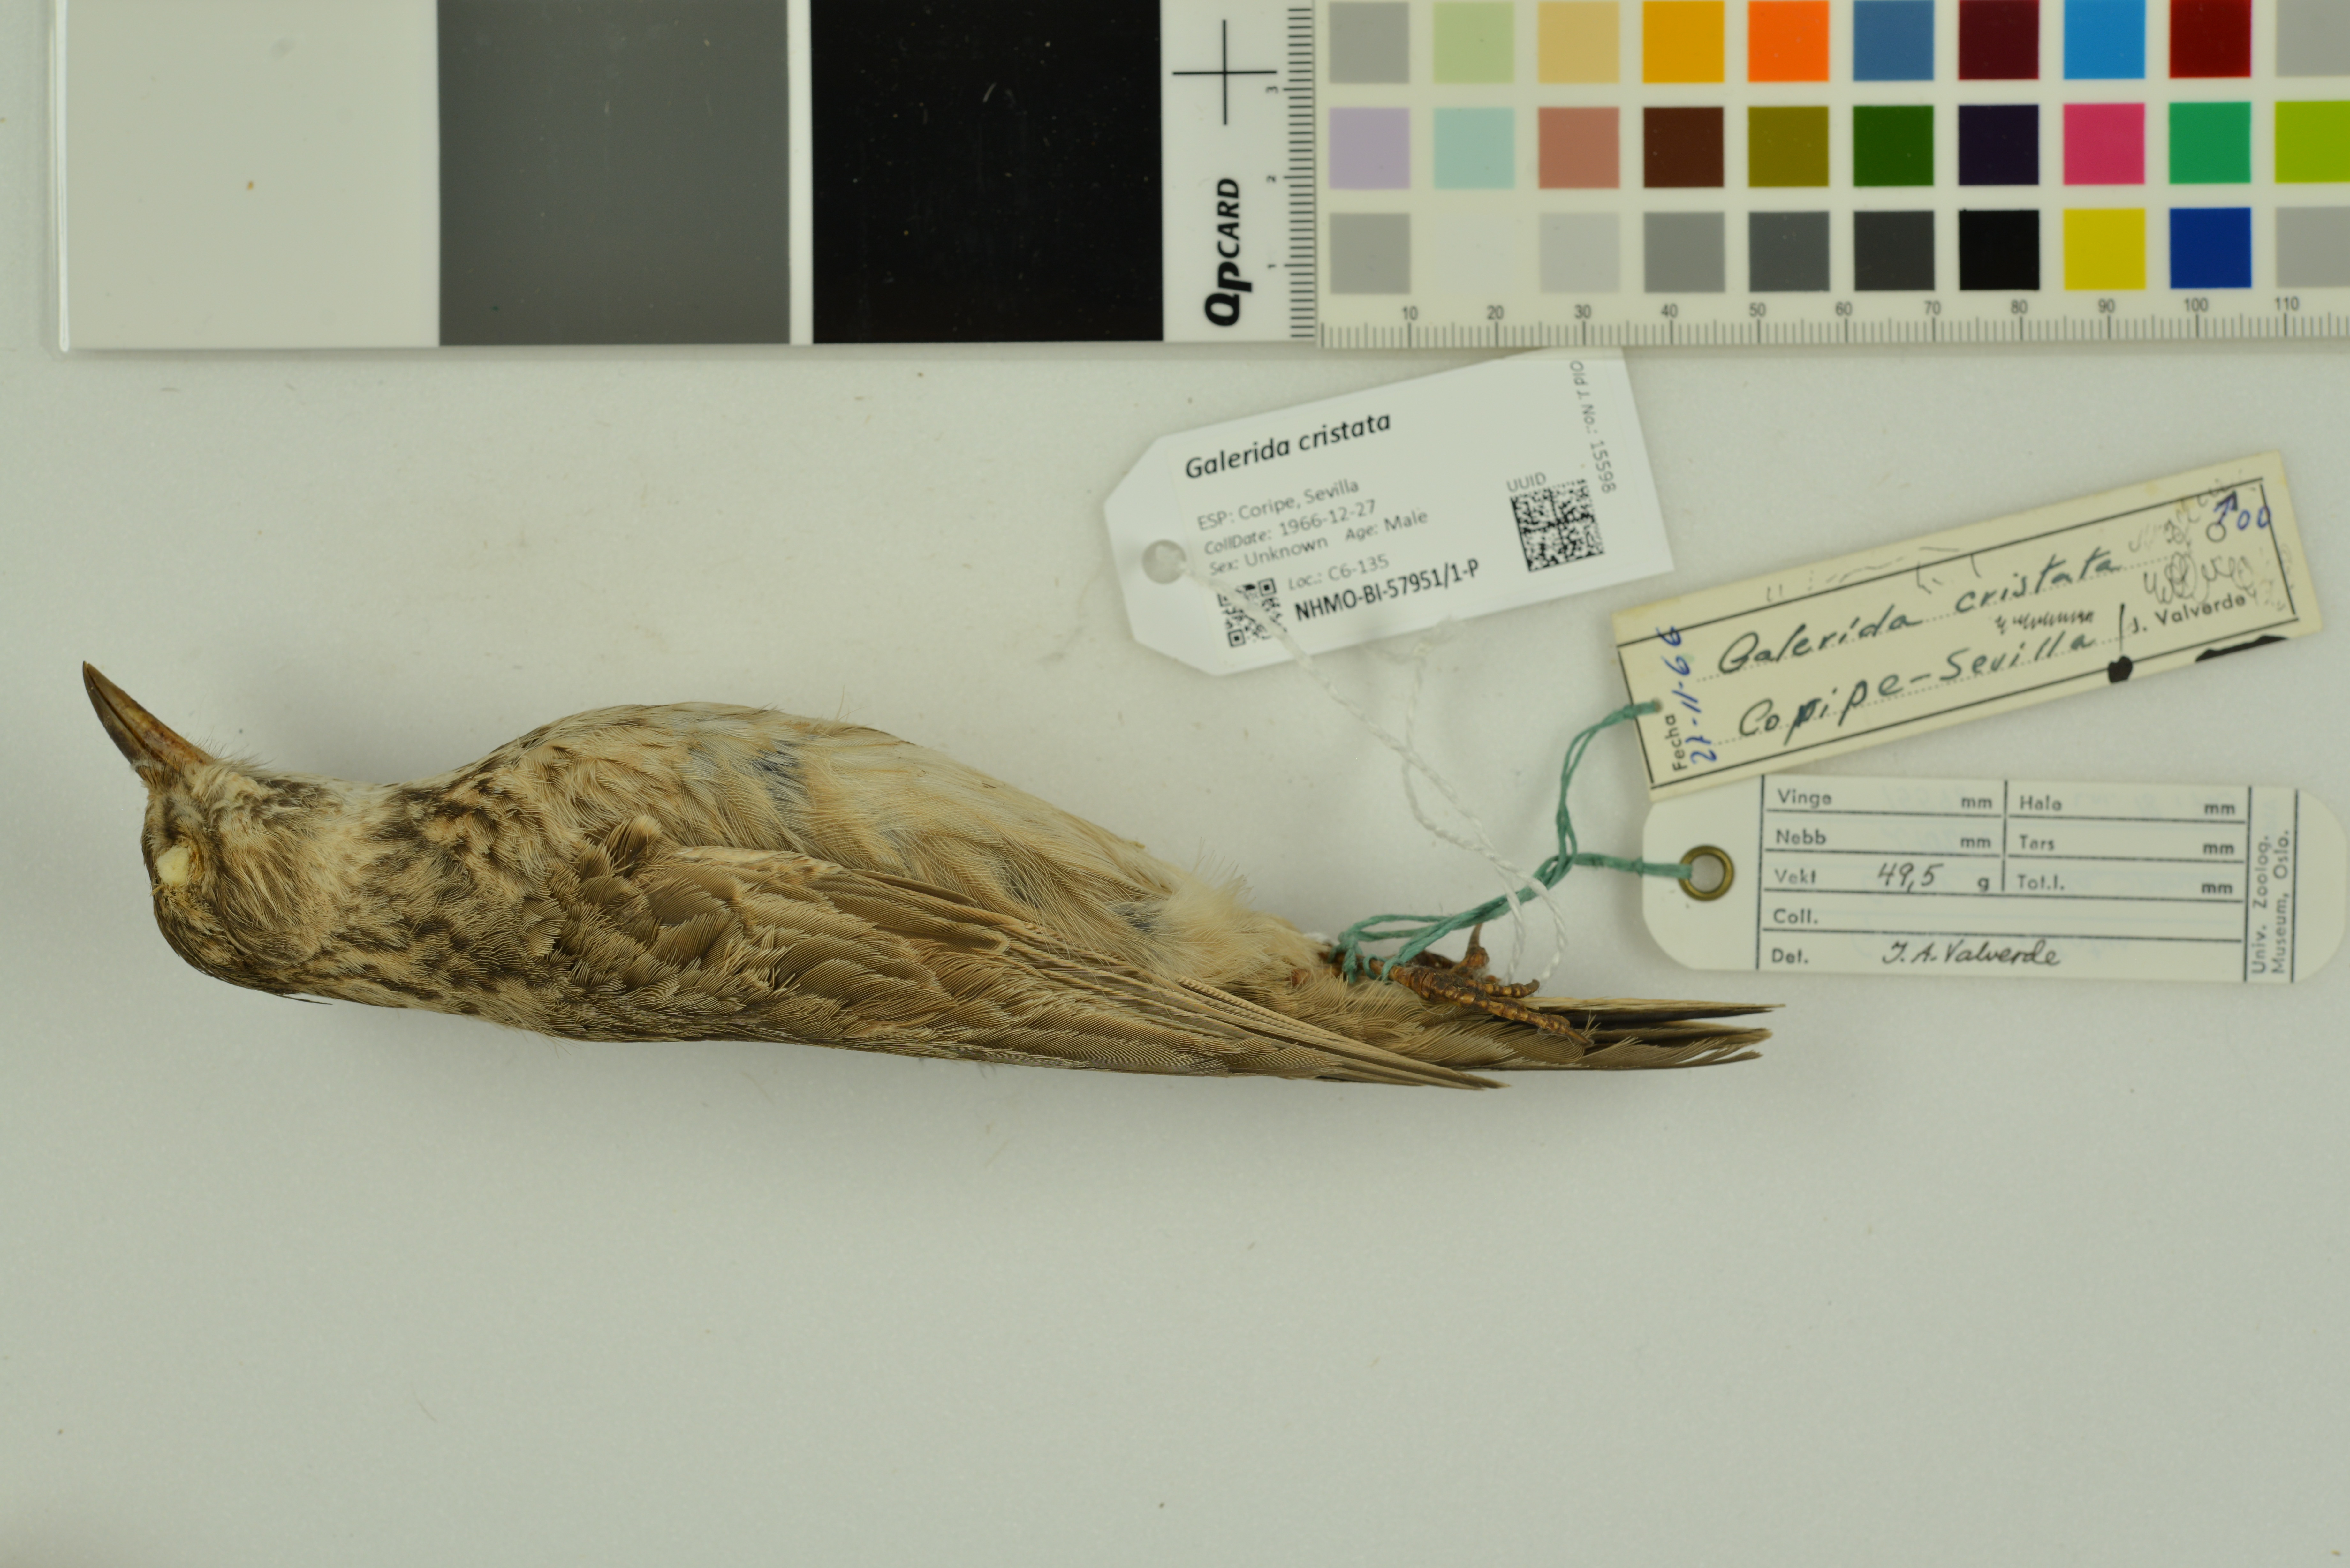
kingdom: Animalia
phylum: Chordata
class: Aves
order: Passeriformes
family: Alaudidae
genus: Galerida
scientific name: Galerida cristata
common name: Crested lark
